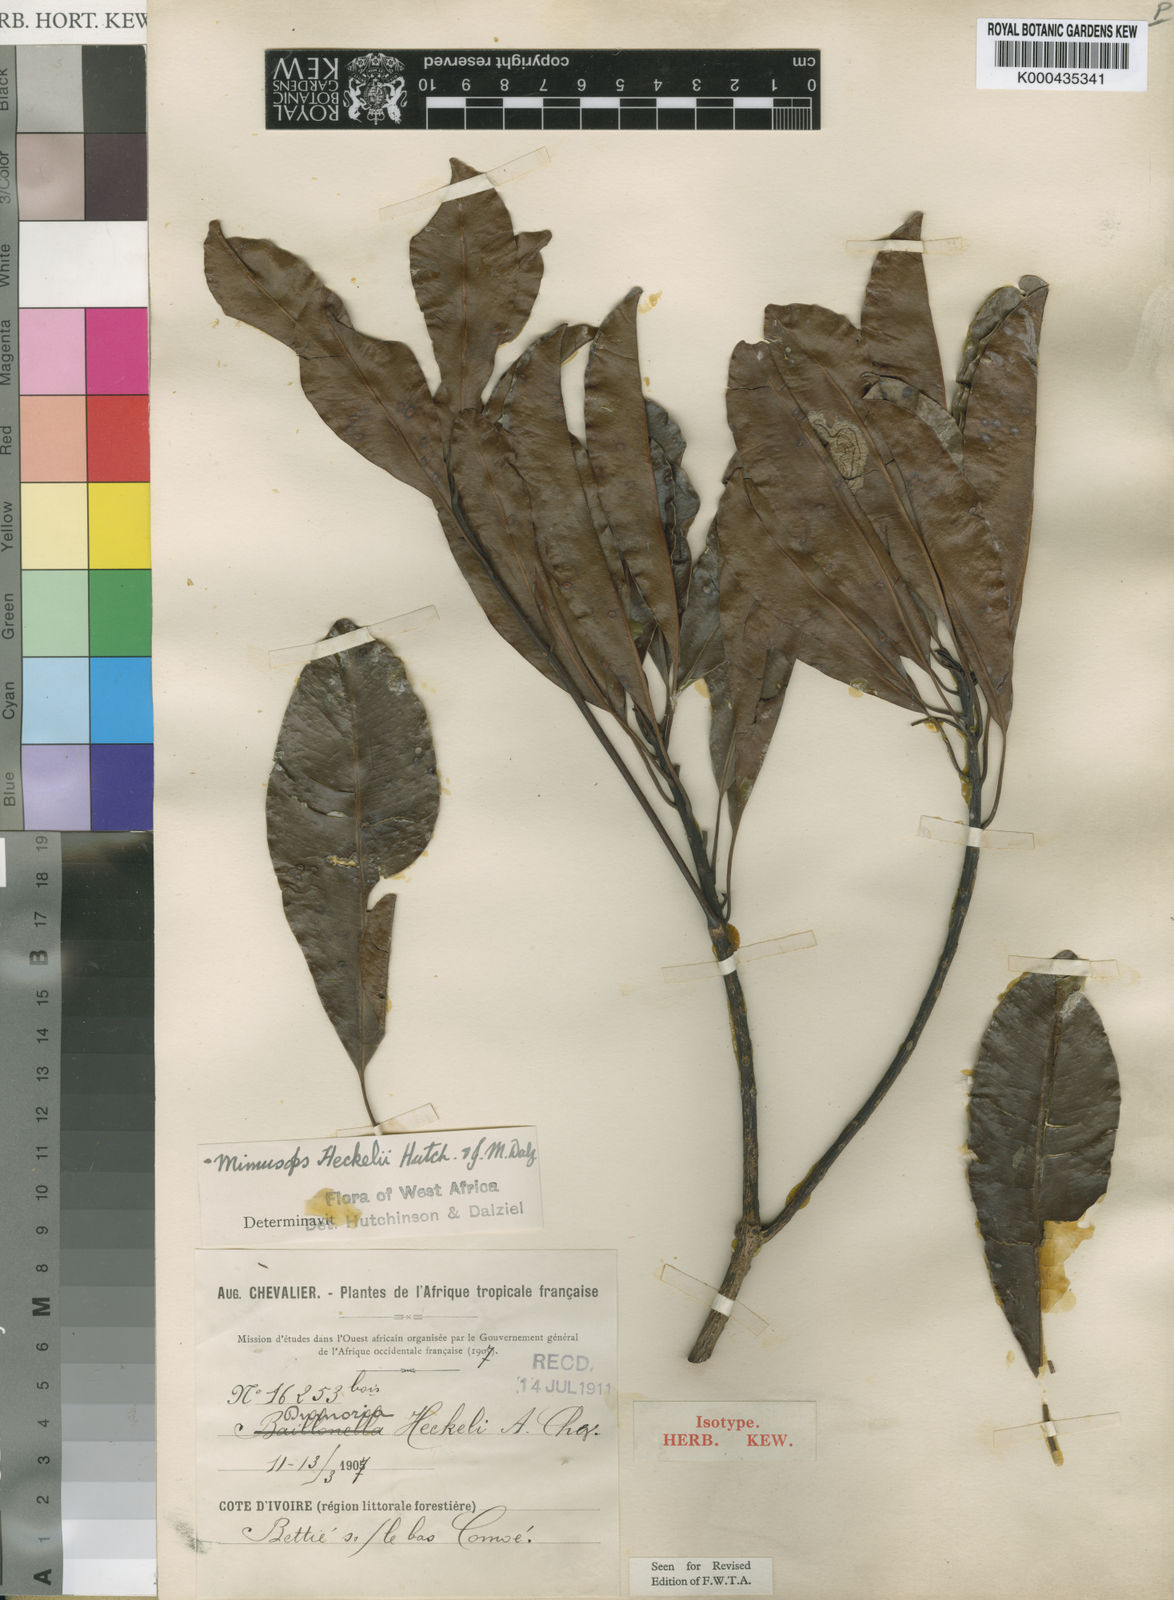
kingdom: Plantae
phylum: Tracheophyta
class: Magnoliopsida
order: Ericales
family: Sapotaceae
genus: Tieghemella
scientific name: Tieghemella heckelii
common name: Cherry mahogany
